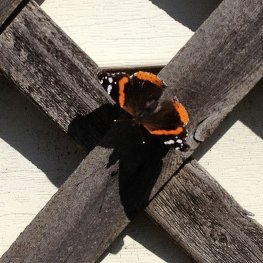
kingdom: Animalia
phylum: Arthropoda
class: Insecta
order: Lepidoptera
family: Nymphalidae
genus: Vanessa
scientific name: Vanessa atalanta
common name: Red Admiral
